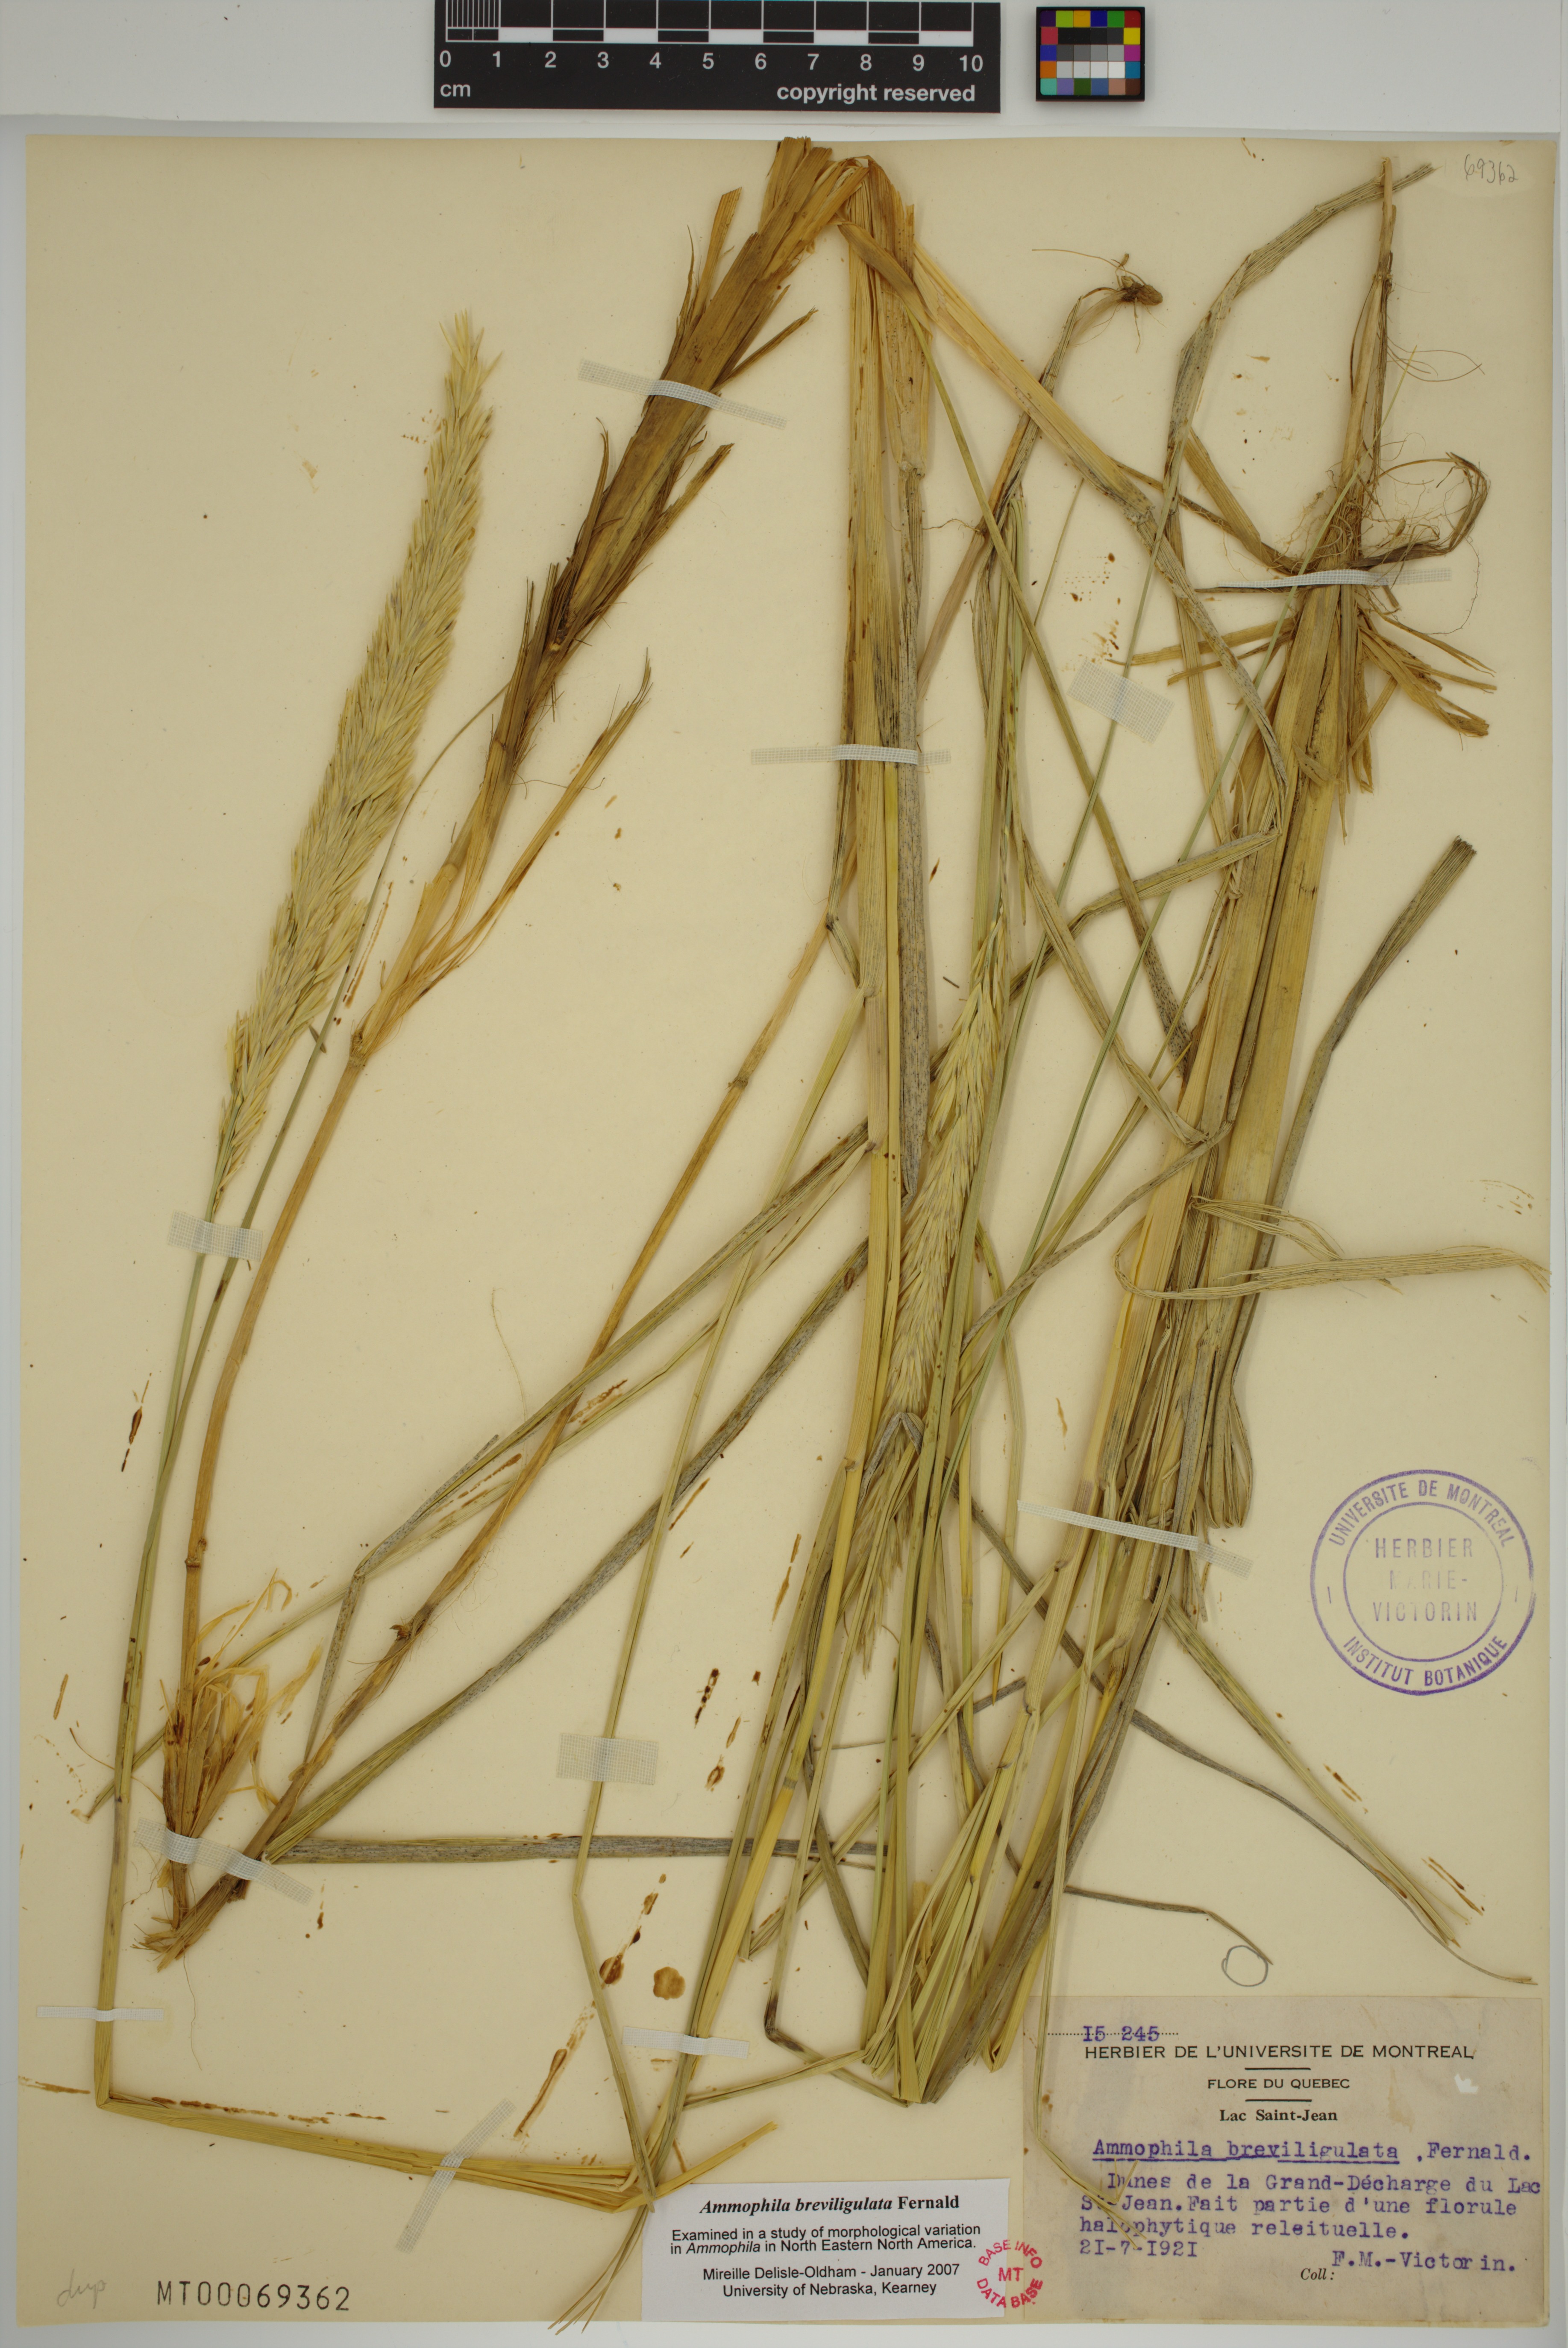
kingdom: Plantae
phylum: Tracheophyta
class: Liliopsida
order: Poales
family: Poaceae
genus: Calamagrostis
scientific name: Calamagrostis breviligulata
